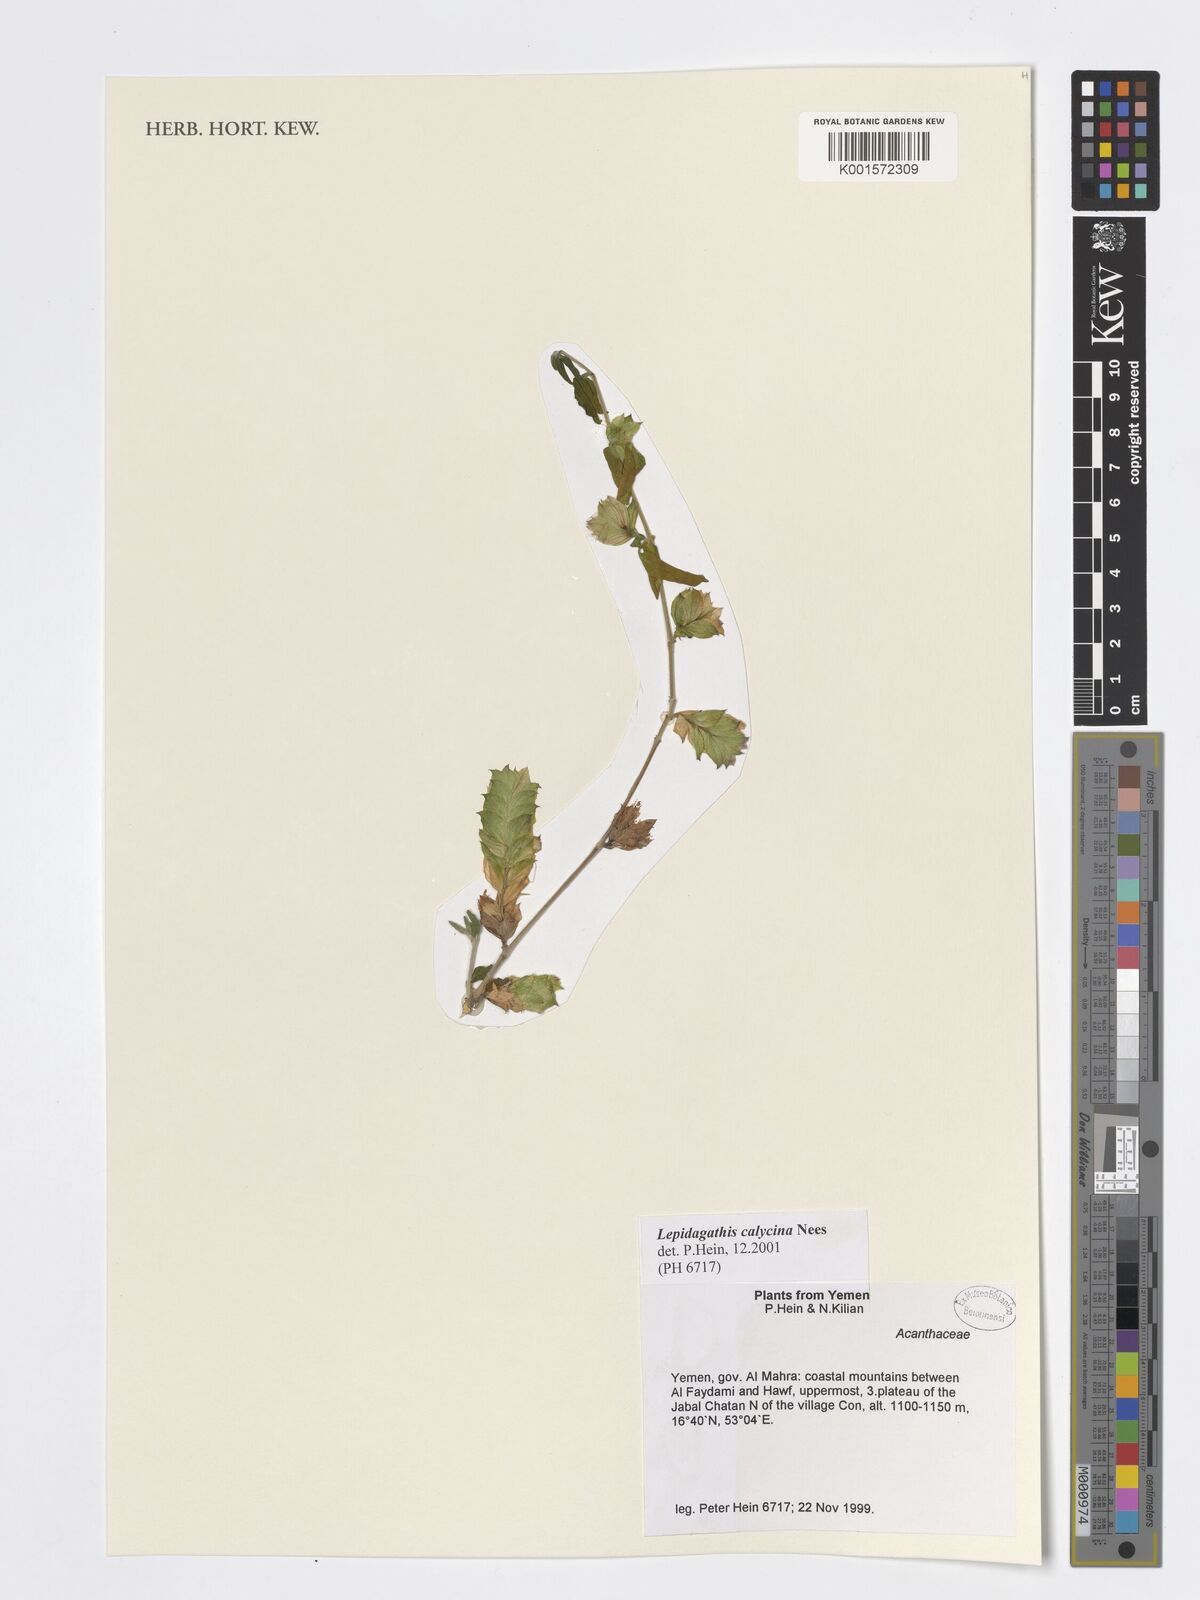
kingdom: Plantae
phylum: Tracheophyta
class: Magnoliopsida
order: Lamiales
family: Acanthaceae
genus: Lepidagathis
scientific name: Lepidagathis calycina
